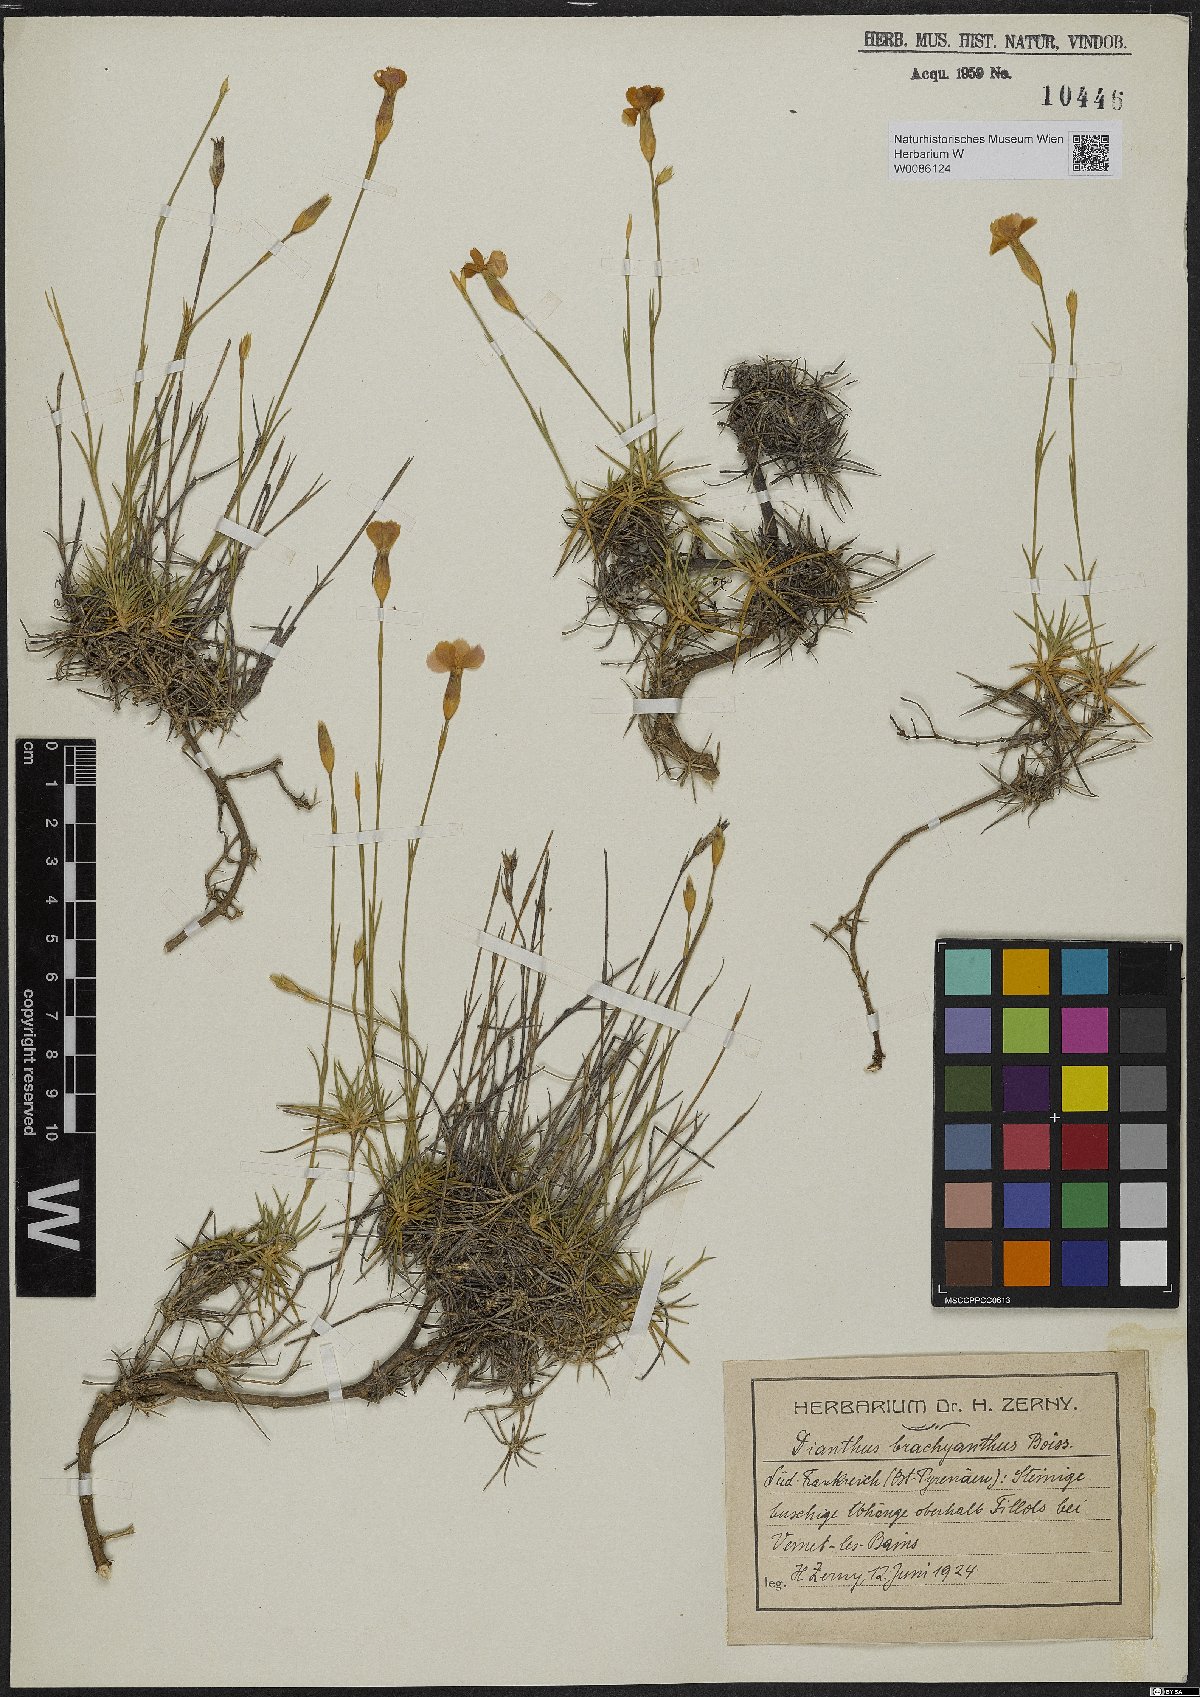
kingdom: Plantae
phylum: Tracheophyta
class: Magnoliopsida
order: Caryophyllales
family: Caryophyllaceae
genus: Dianthus
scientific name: Dianthus pungens
